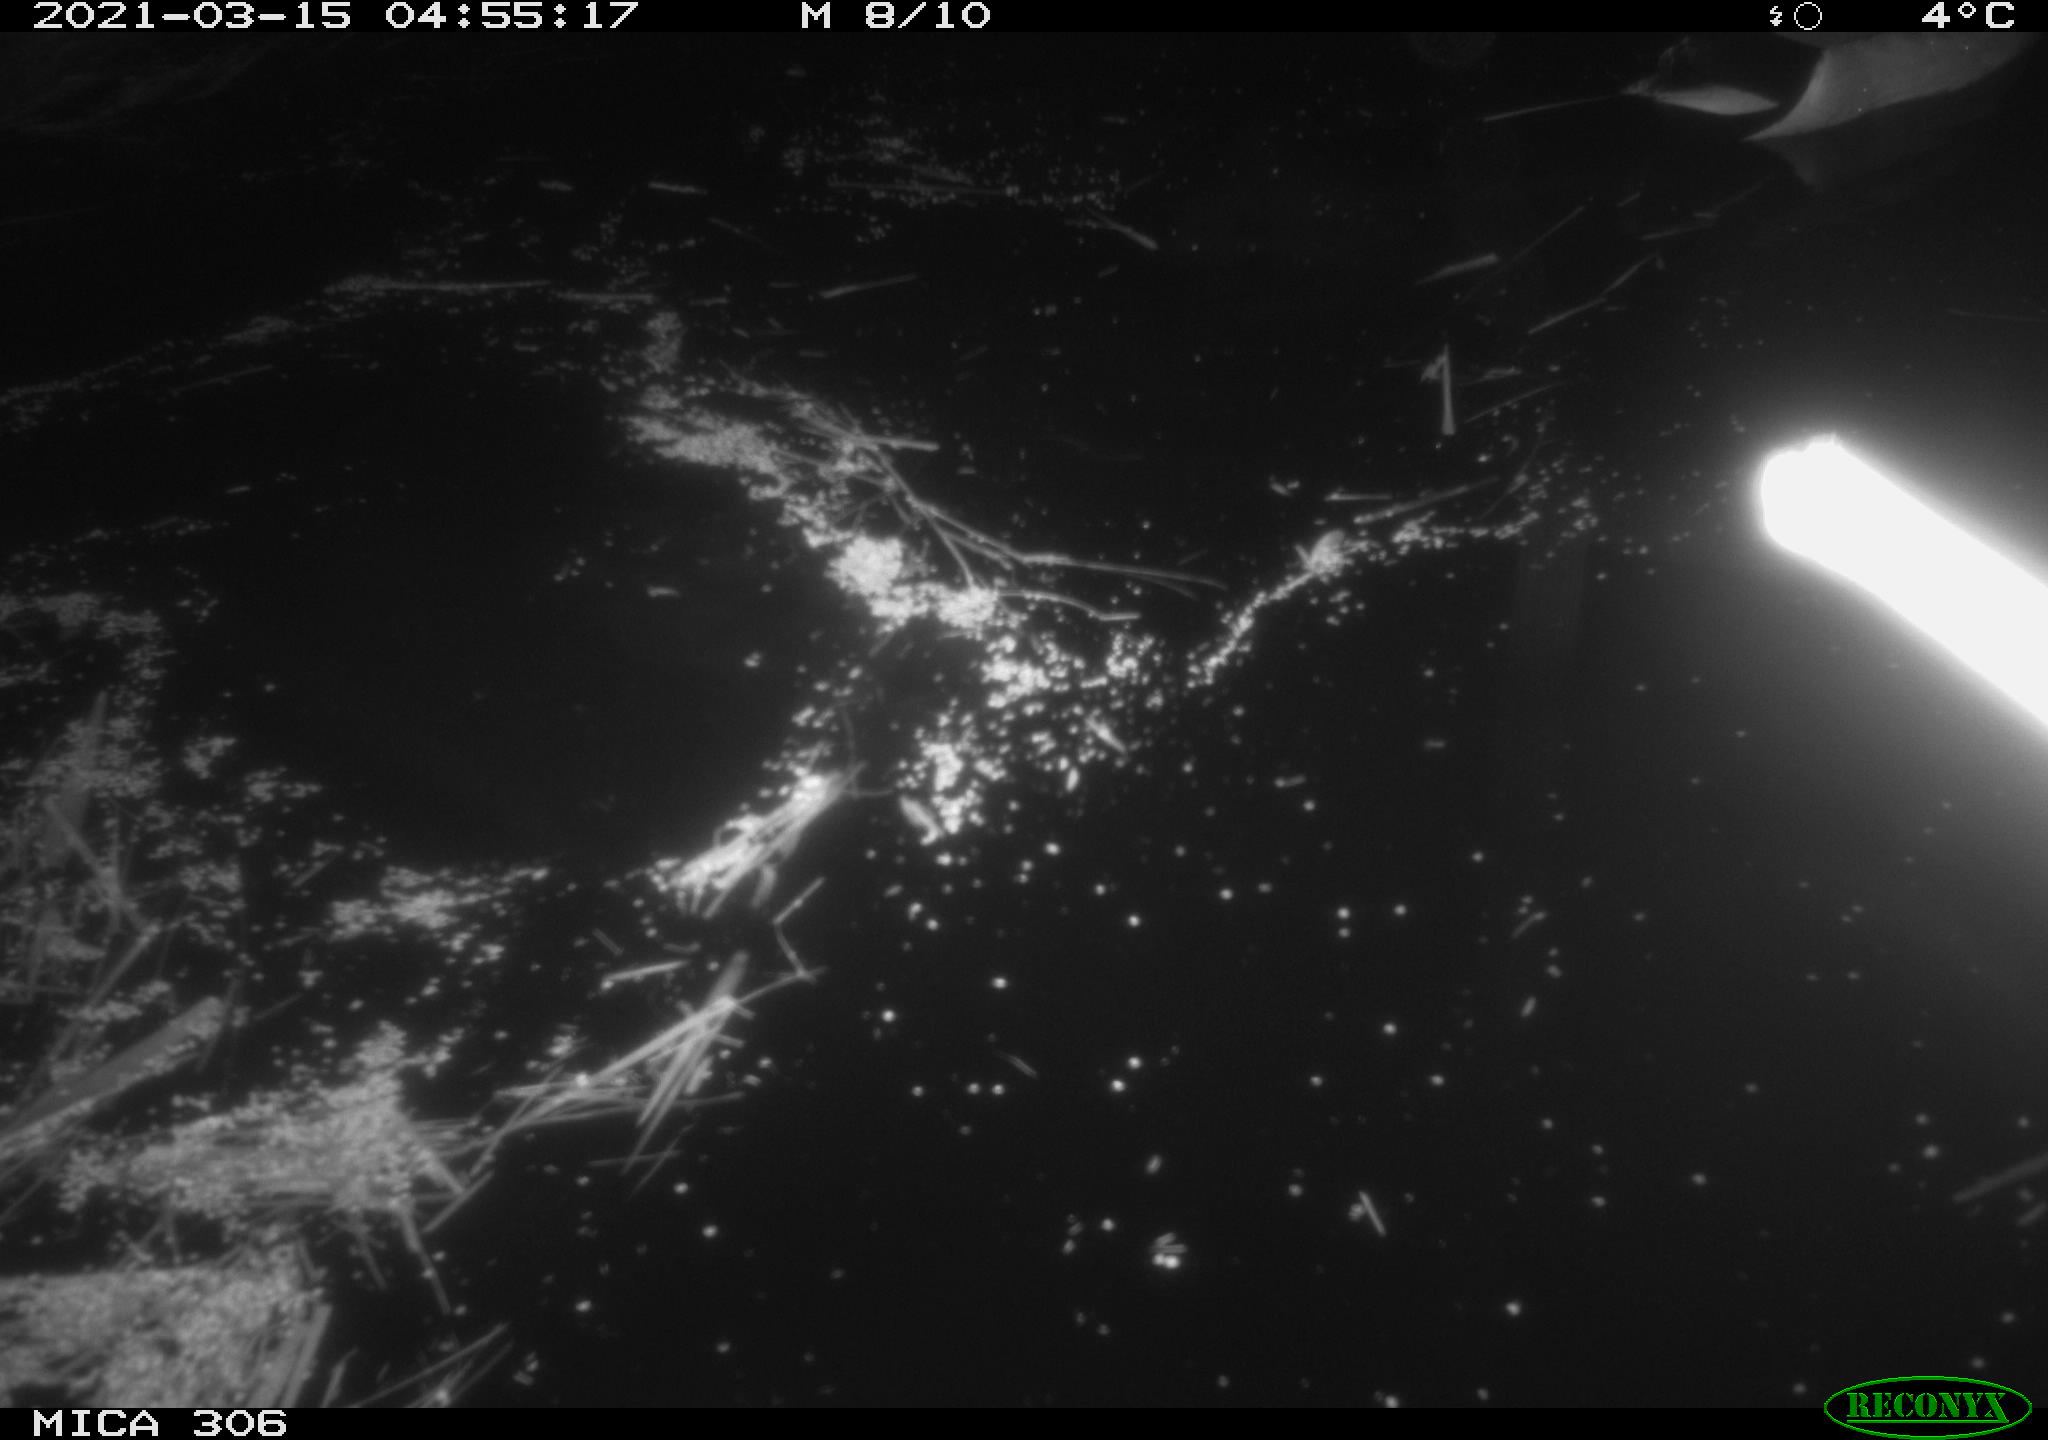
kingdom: Animalia
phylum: Chordata
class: Aves
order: Anseriformes
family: Anatidae
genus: Anas
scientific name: Anas platyrhynchos
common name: Mallard
